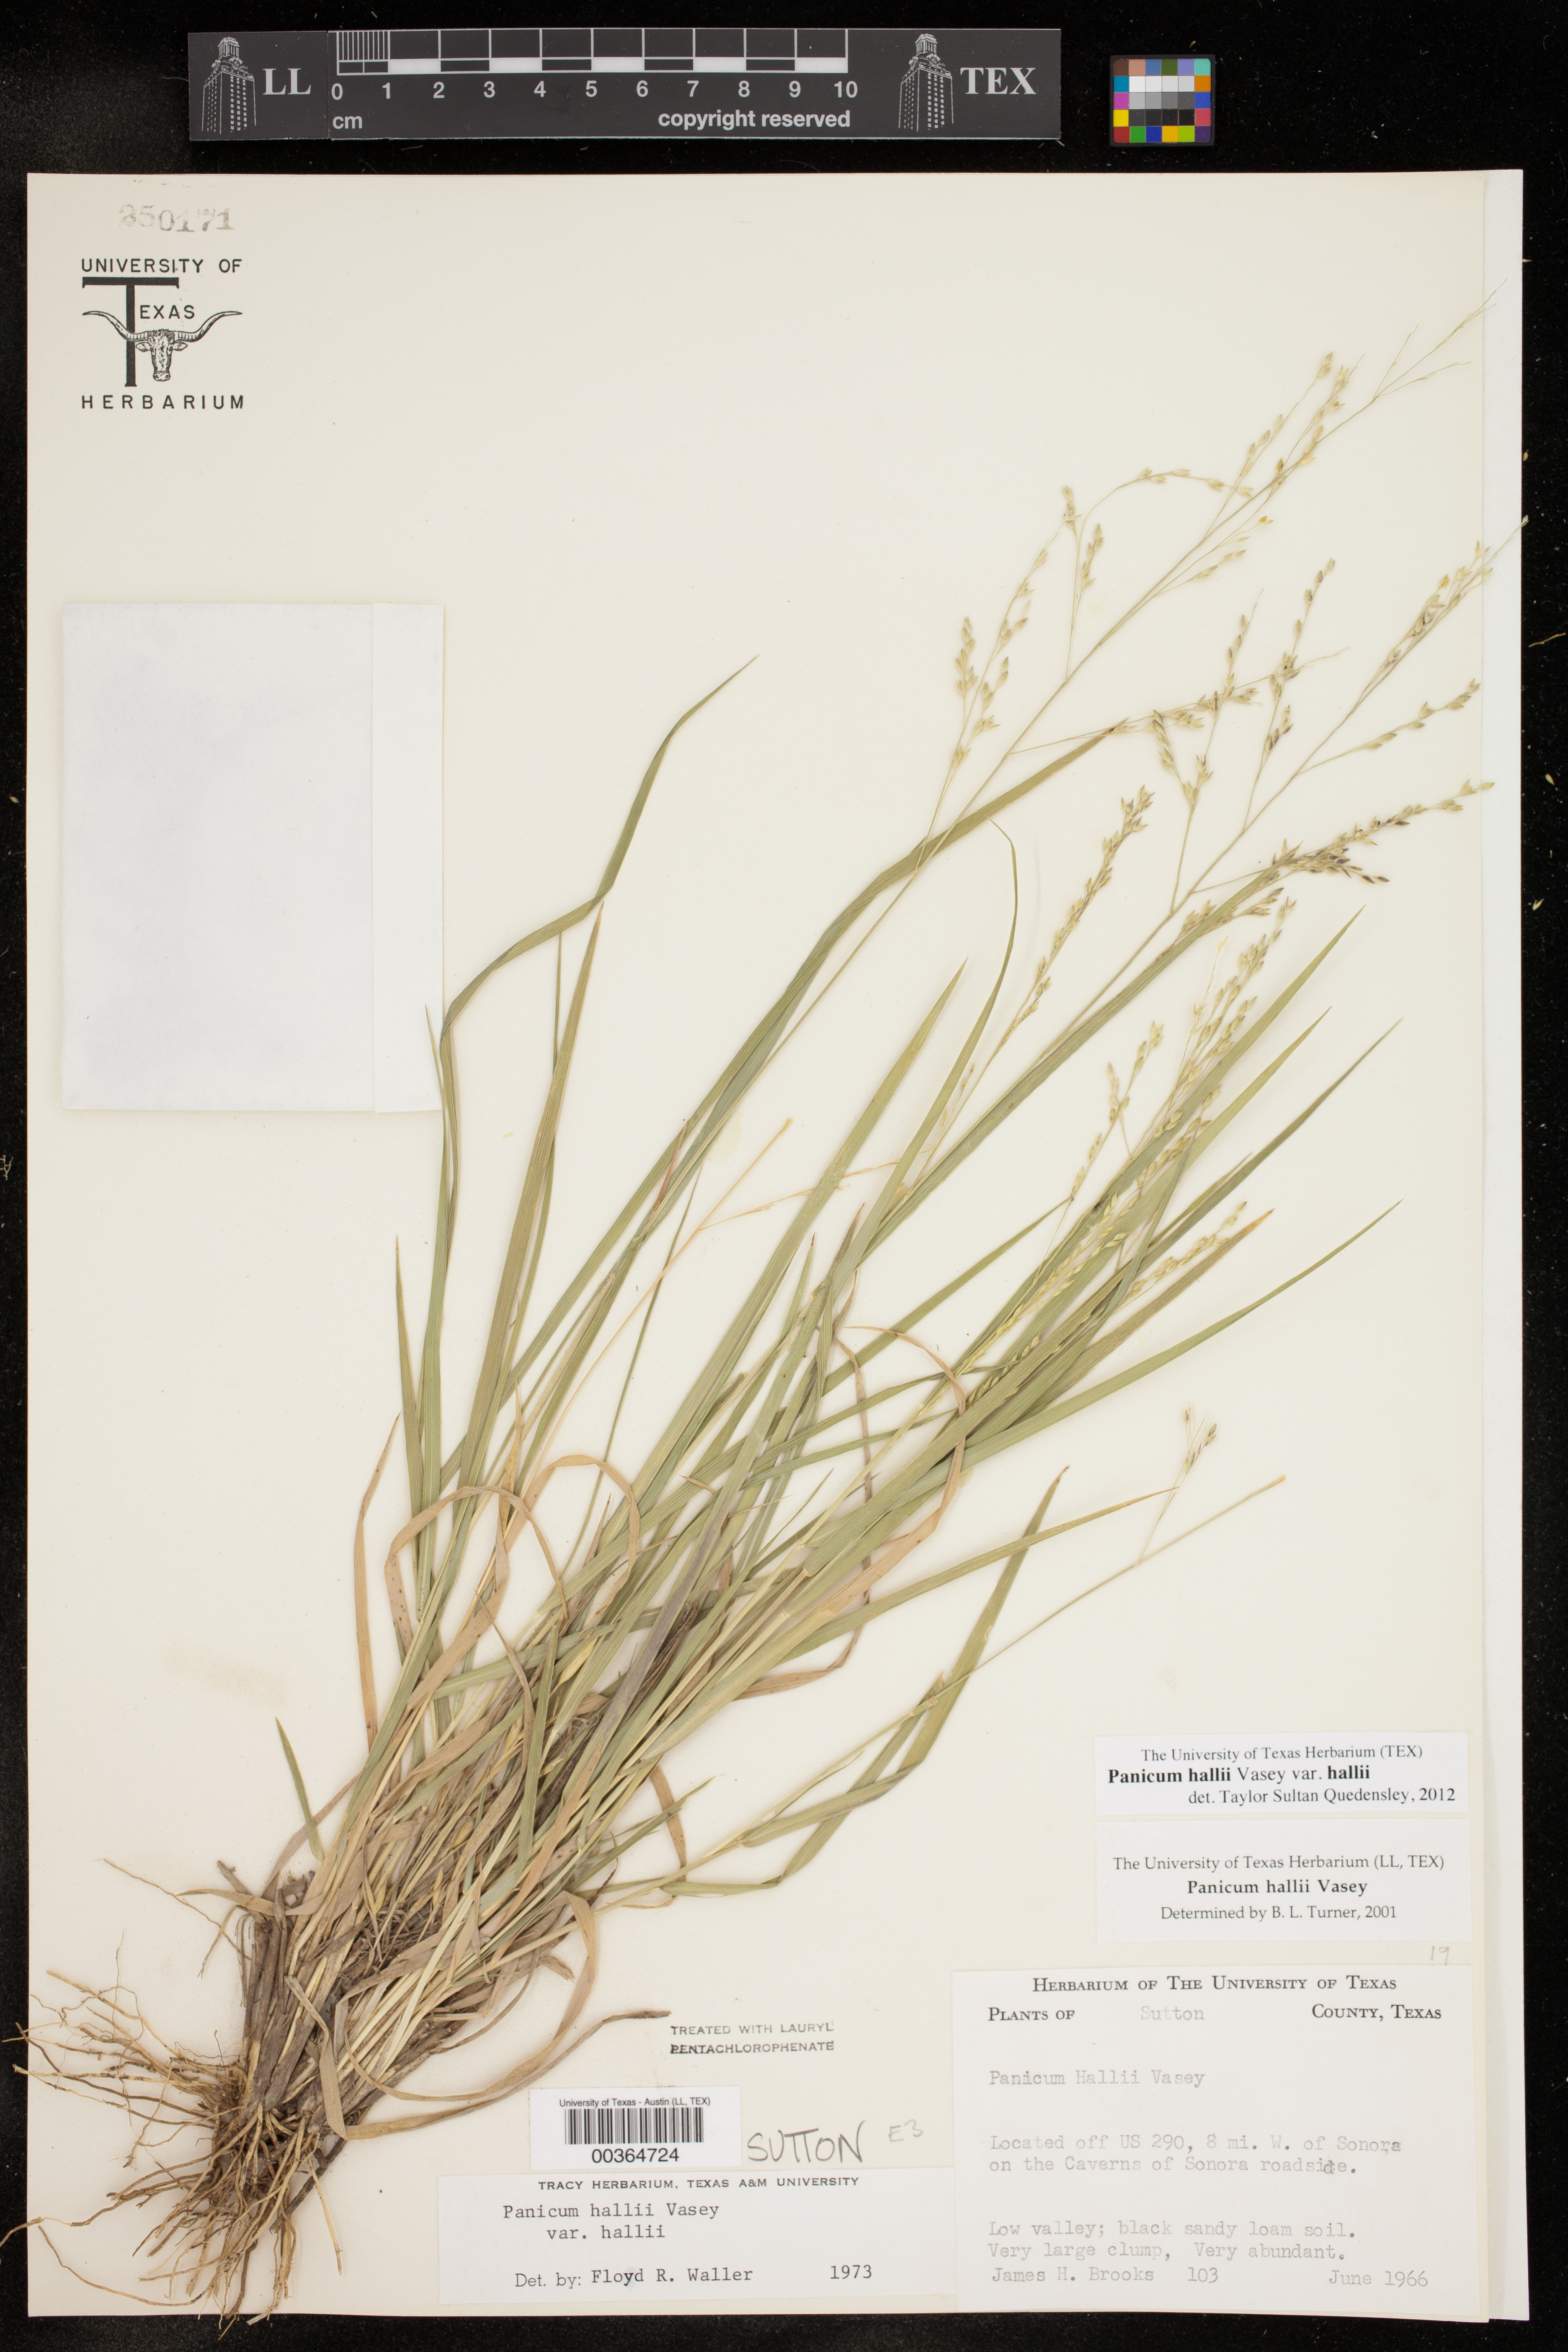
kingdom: Plantae
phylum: Tracheophyta
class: Liliopsida
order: Poales
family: Poaceae
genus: Panicum
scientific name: Panicum hallii
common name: Hall's witchgrass
